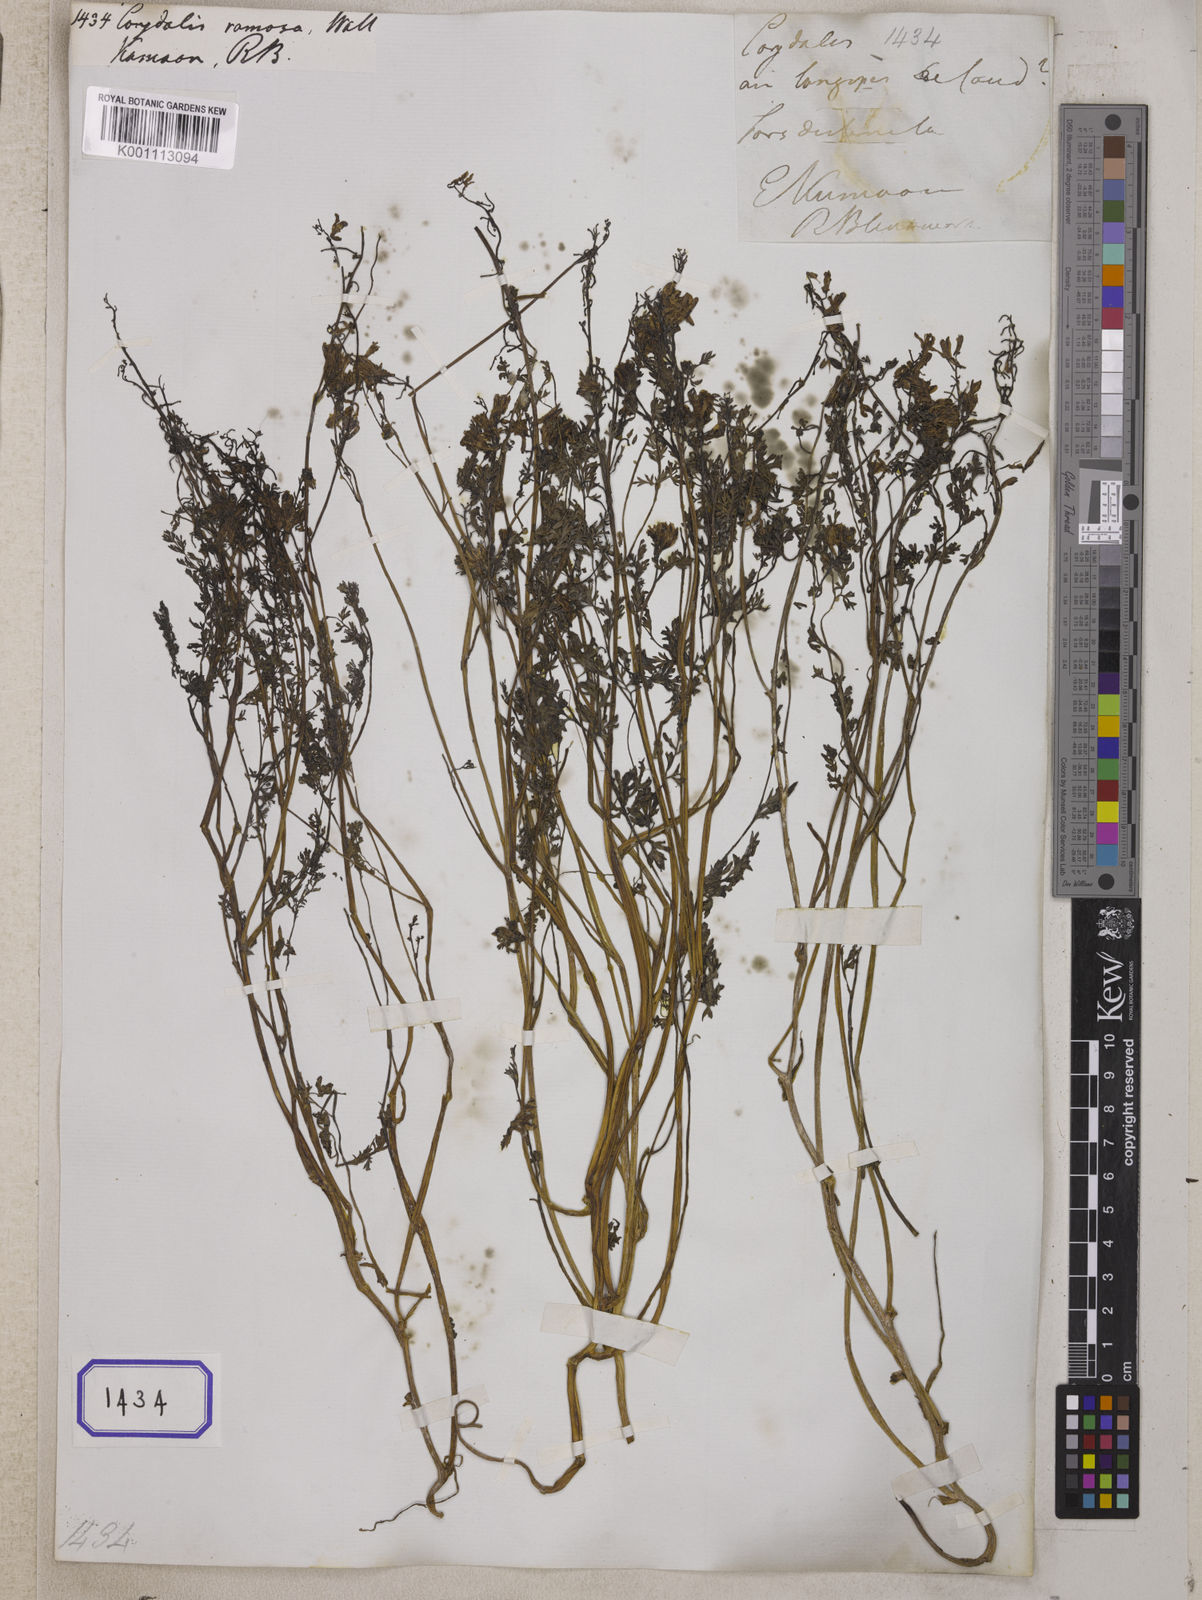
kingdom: Plantae
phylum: Tracheophyta
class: Magnoliopsida
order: Ranunculales
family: Papaveraceae
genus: Corydalis
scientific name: Corydalis
